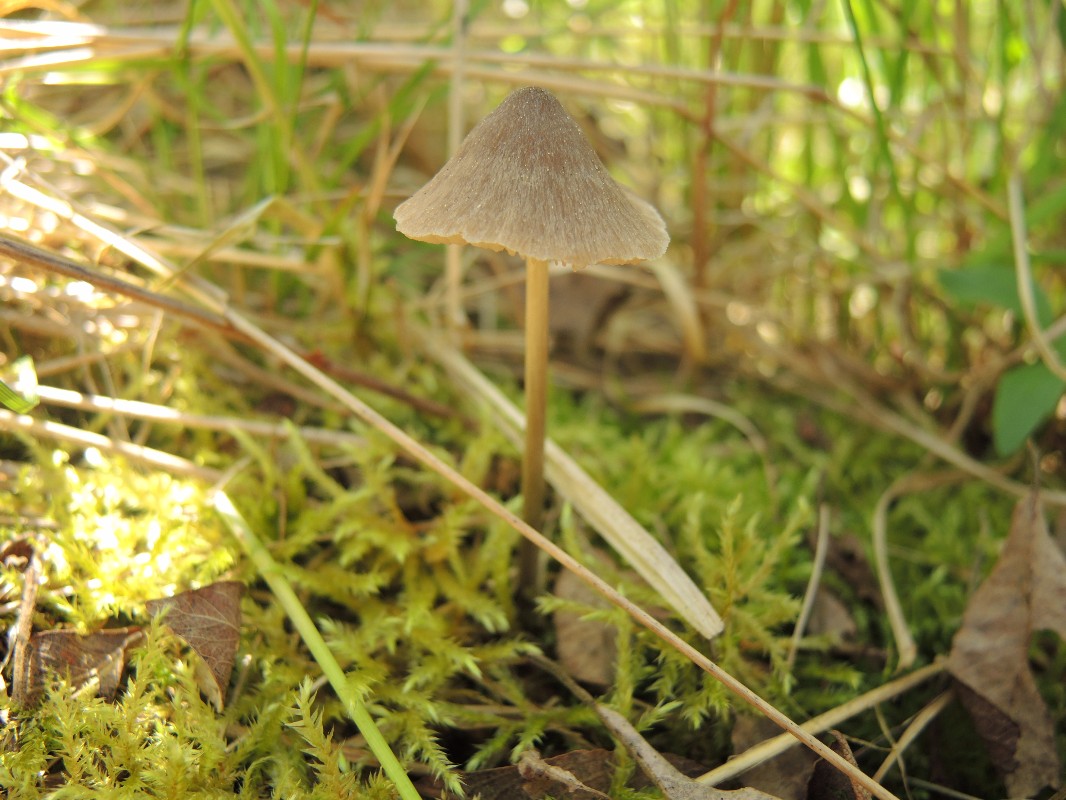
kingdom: Fungi
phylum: Basidiomycota
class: Agaricomycetes
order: Agaricales
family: Entolomataceae
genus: Entoloma
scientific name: Entoloma conferendum
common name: stjernesporet rødblad
